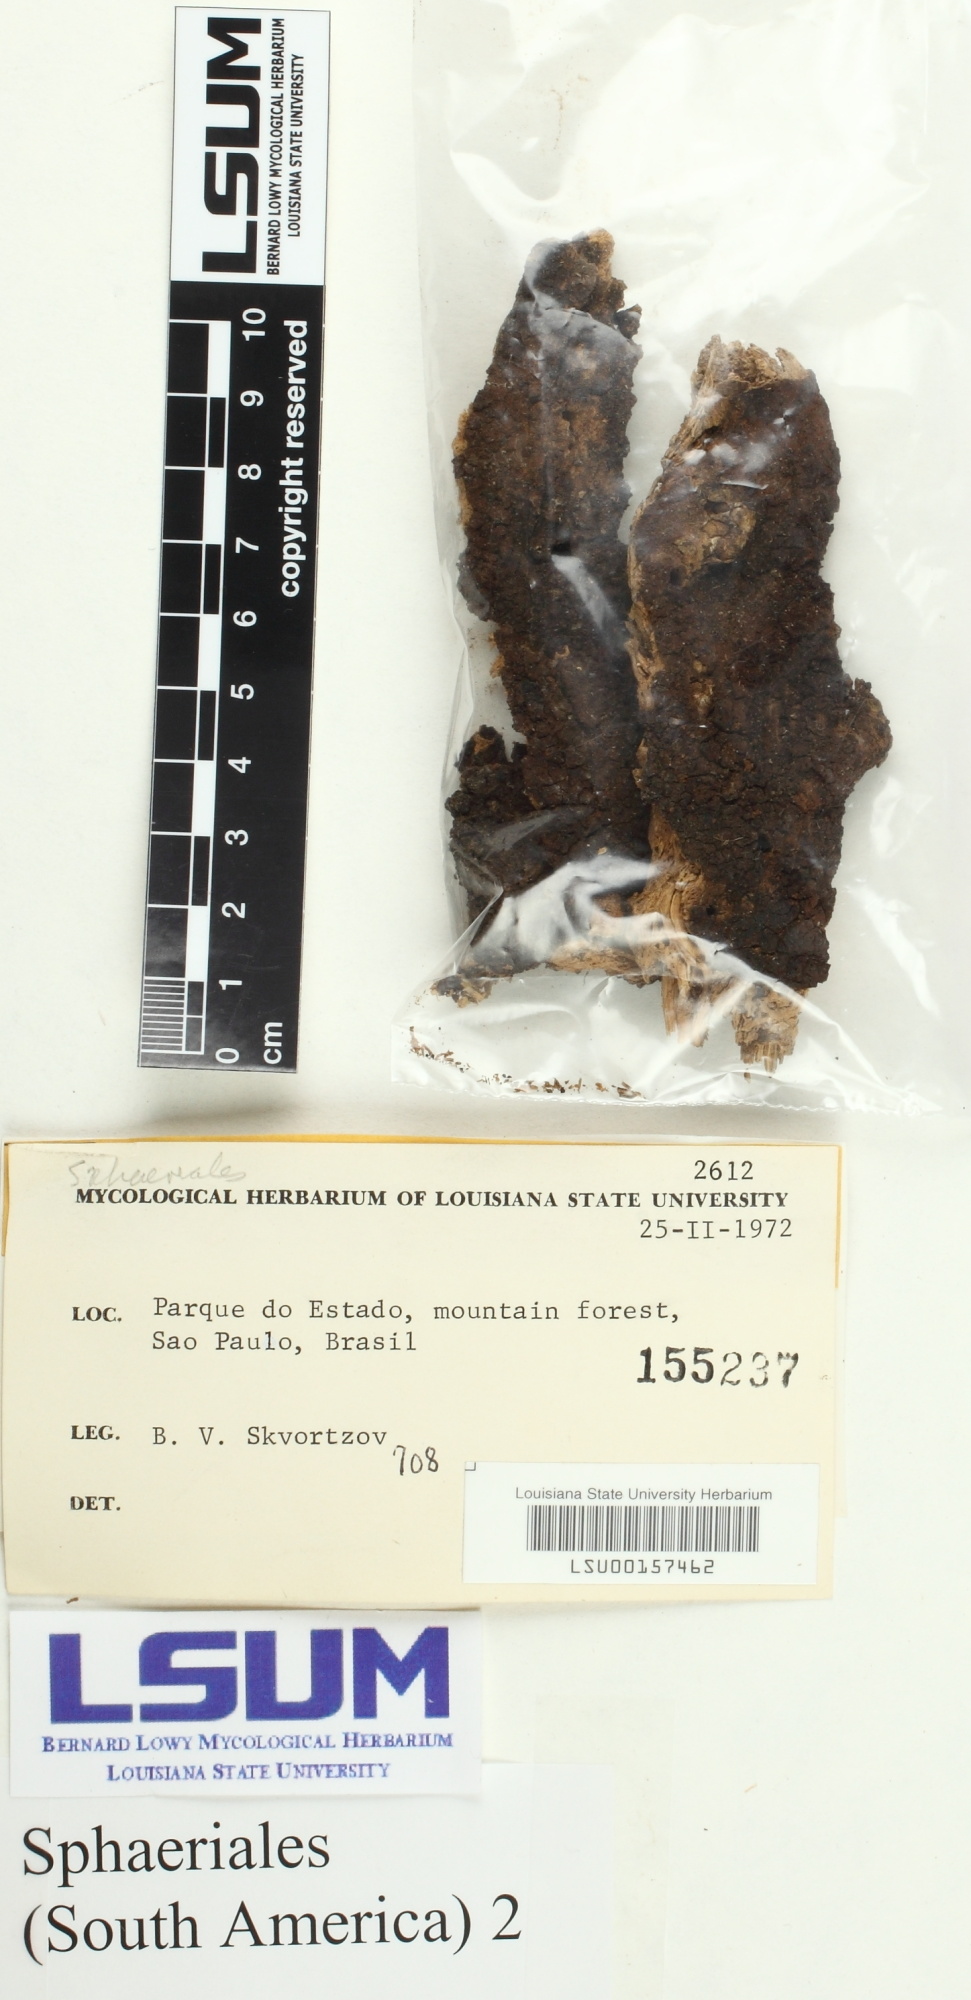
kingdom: Fungi
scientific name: Fungi
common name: Fungi
